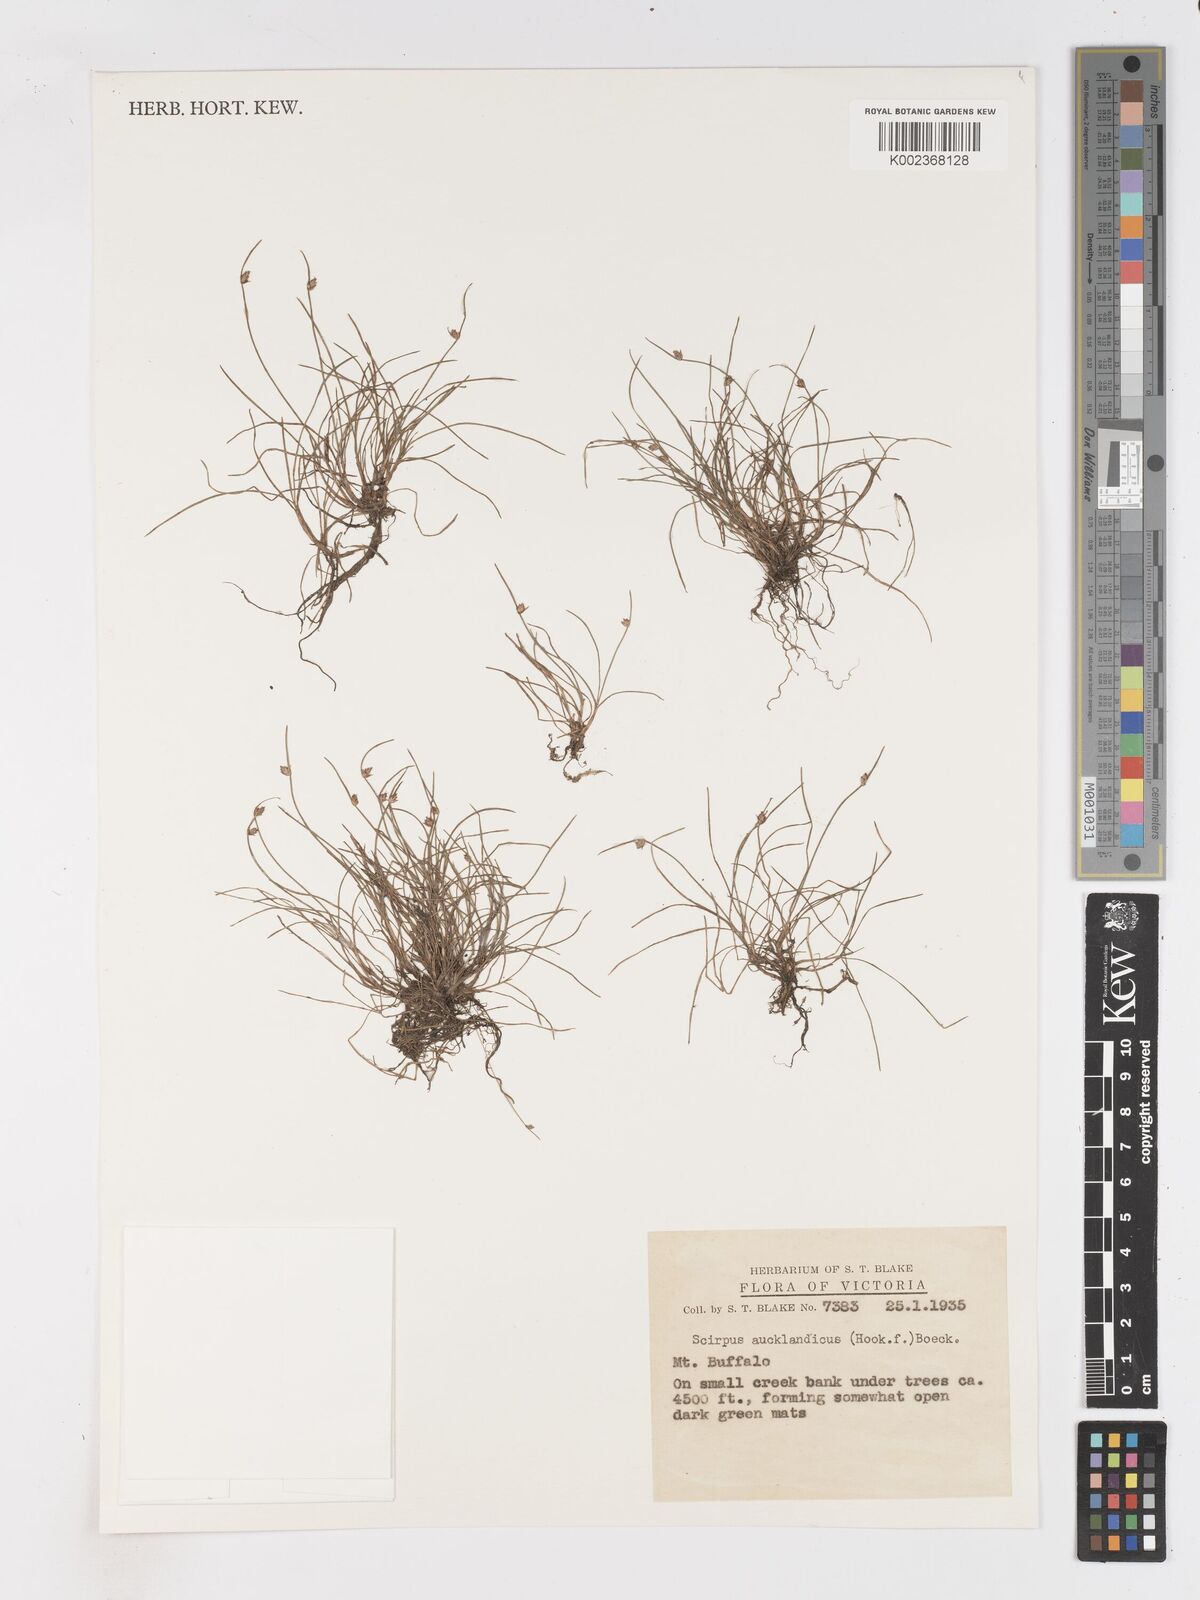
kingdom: Plantae
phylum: Tracheophyta
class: Liliopsida
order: Poales
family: Cyperaceae
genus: Isolepis
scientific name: Isolepis aucklandica
